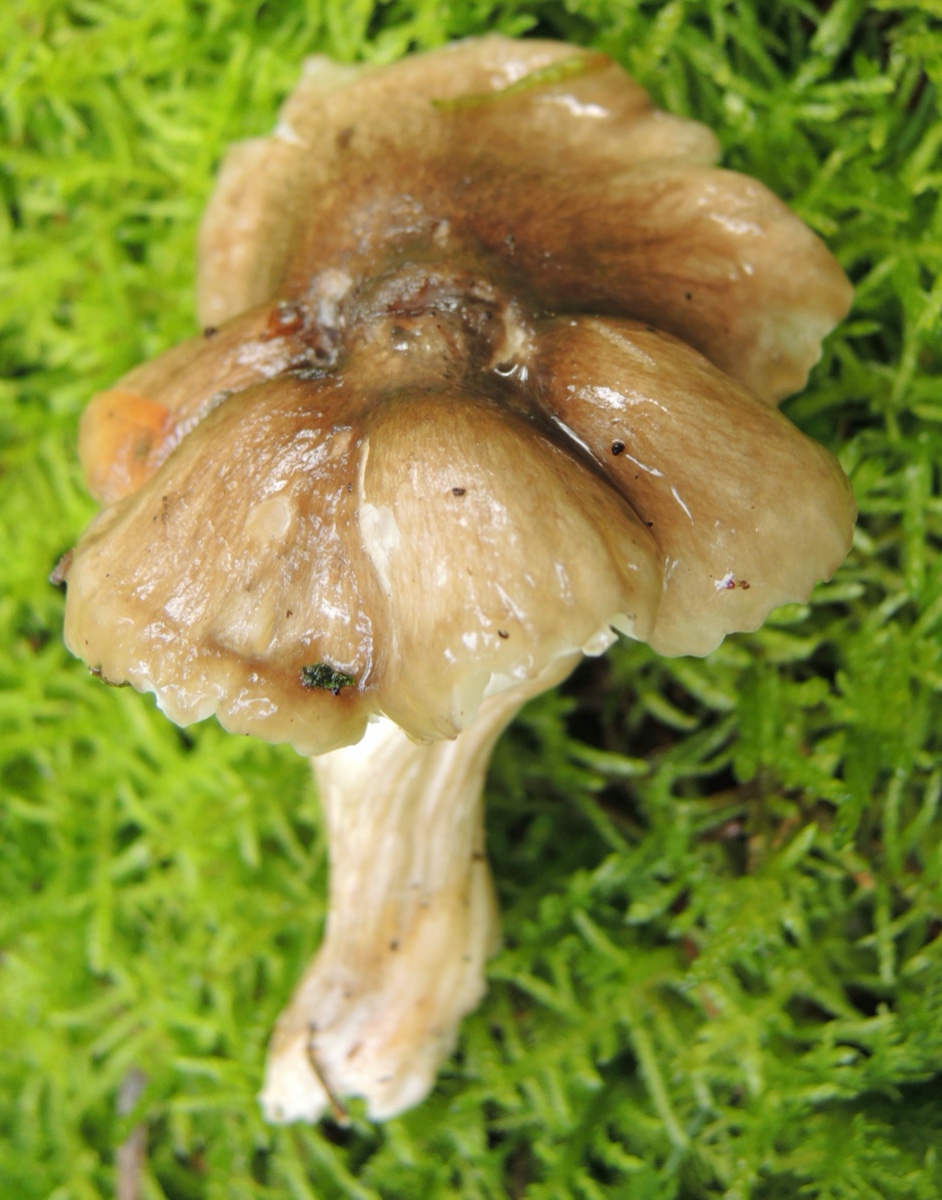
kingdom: Fungi
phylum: Basidiomycota
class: Agaricomycetes
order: Agaricales
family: Hygrophoraceae
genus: Hygrophorus
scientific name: Hygrophorus korhonenii
